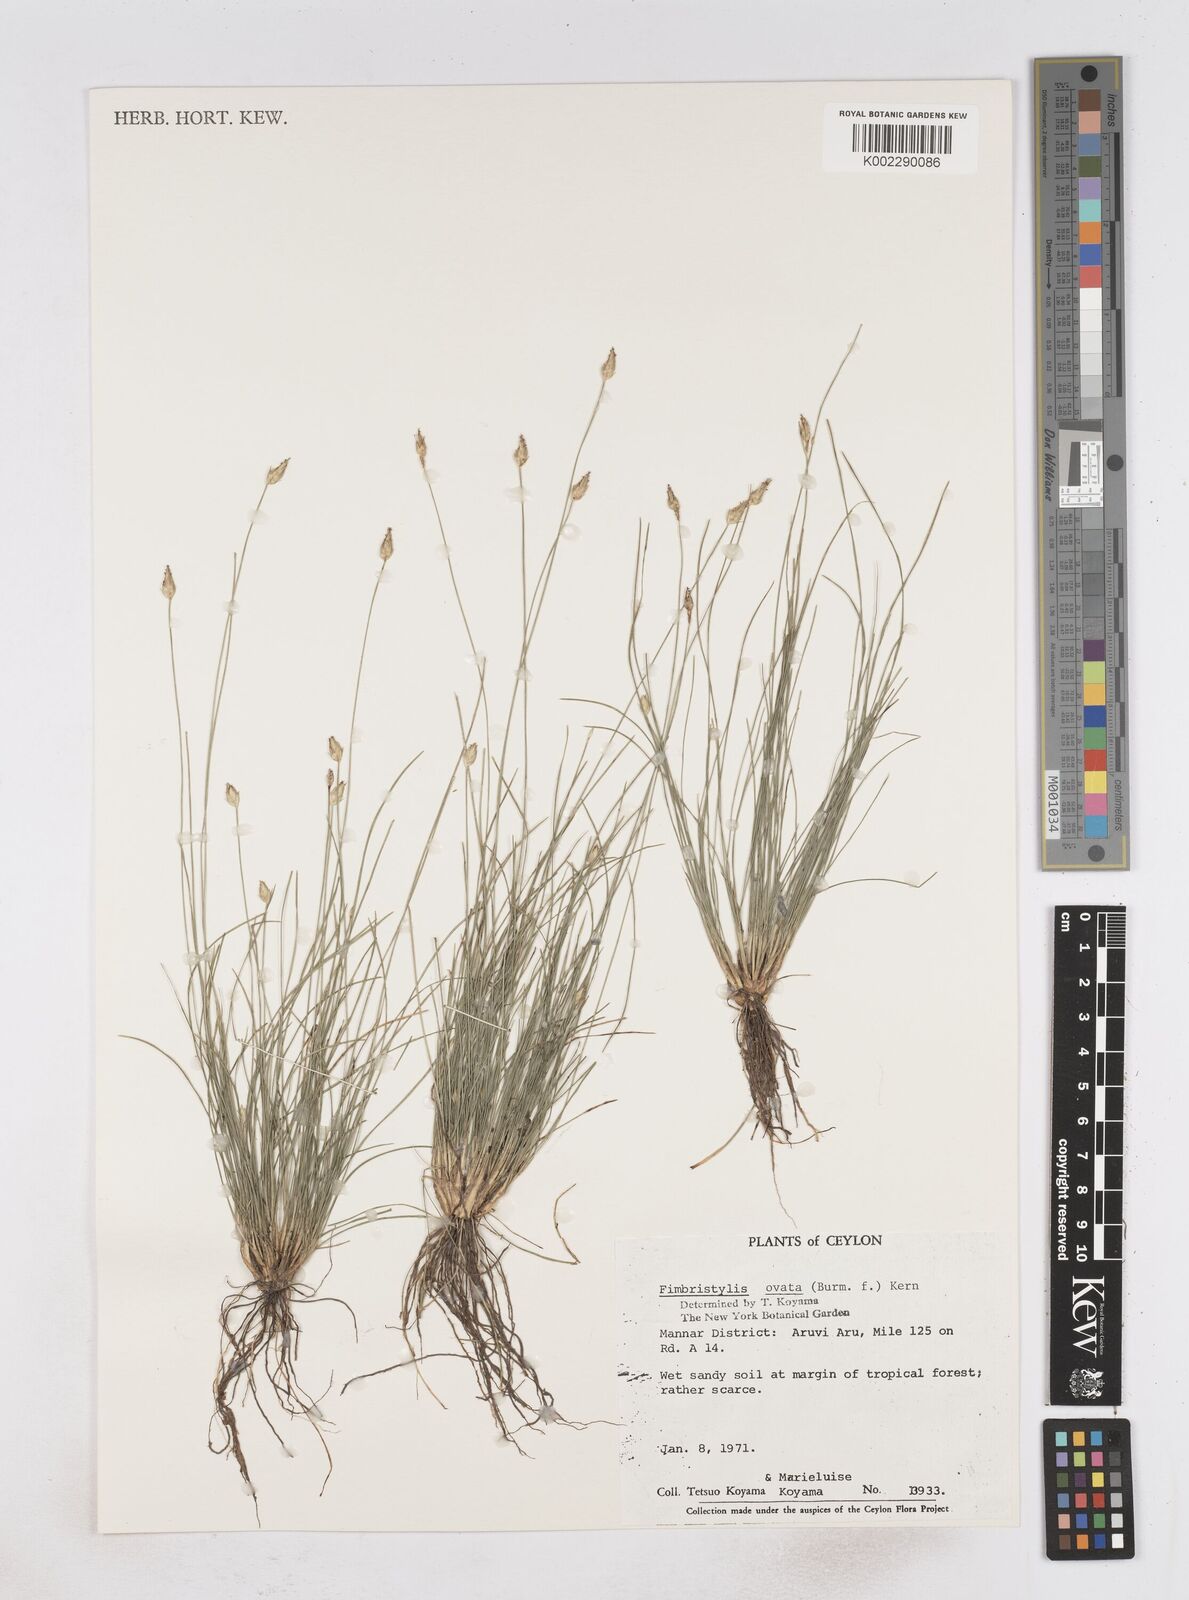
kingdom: Plantae
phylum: Tracheophyta
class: Liliopsida
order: Poales
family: Cyperaceae
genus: Abildgaardia
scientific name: Abildgaardia ovata
